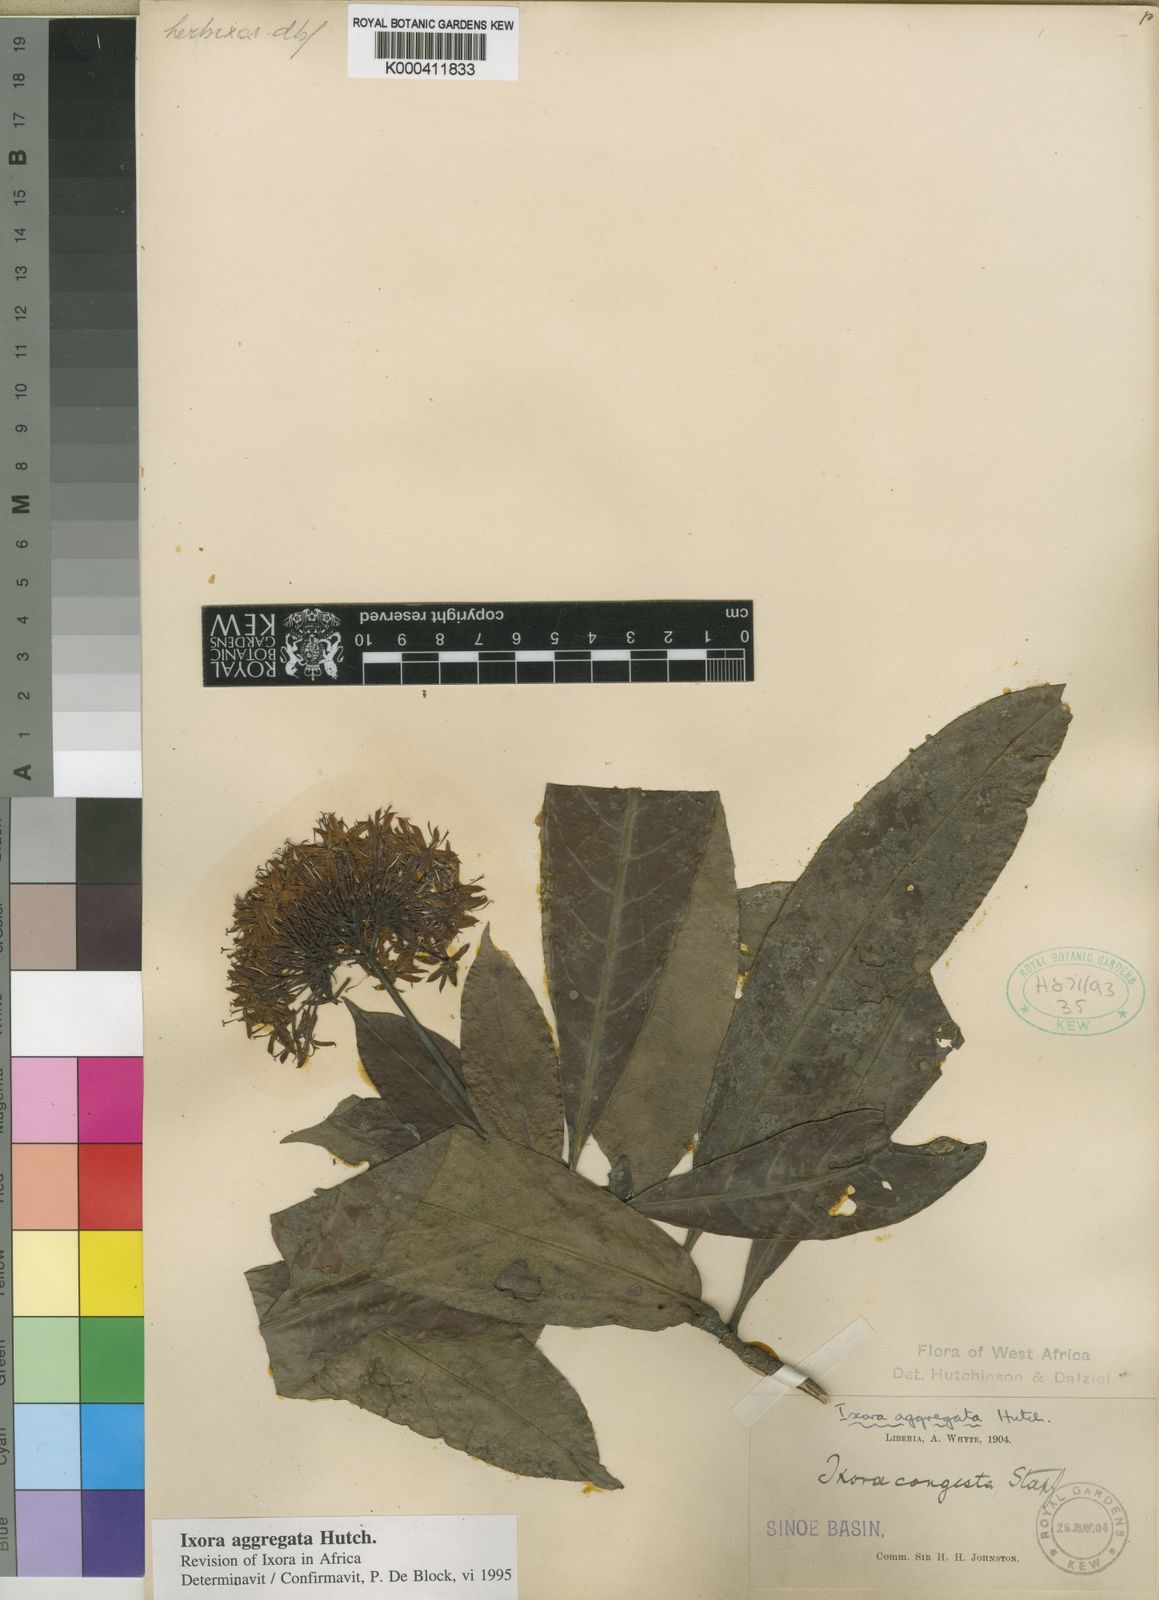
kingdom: Plantae
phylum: Tracheophyta
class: Magnoliopsida
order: Gentianales
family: Rubiaceae
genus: Ixora
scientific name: Ixora aggregata
